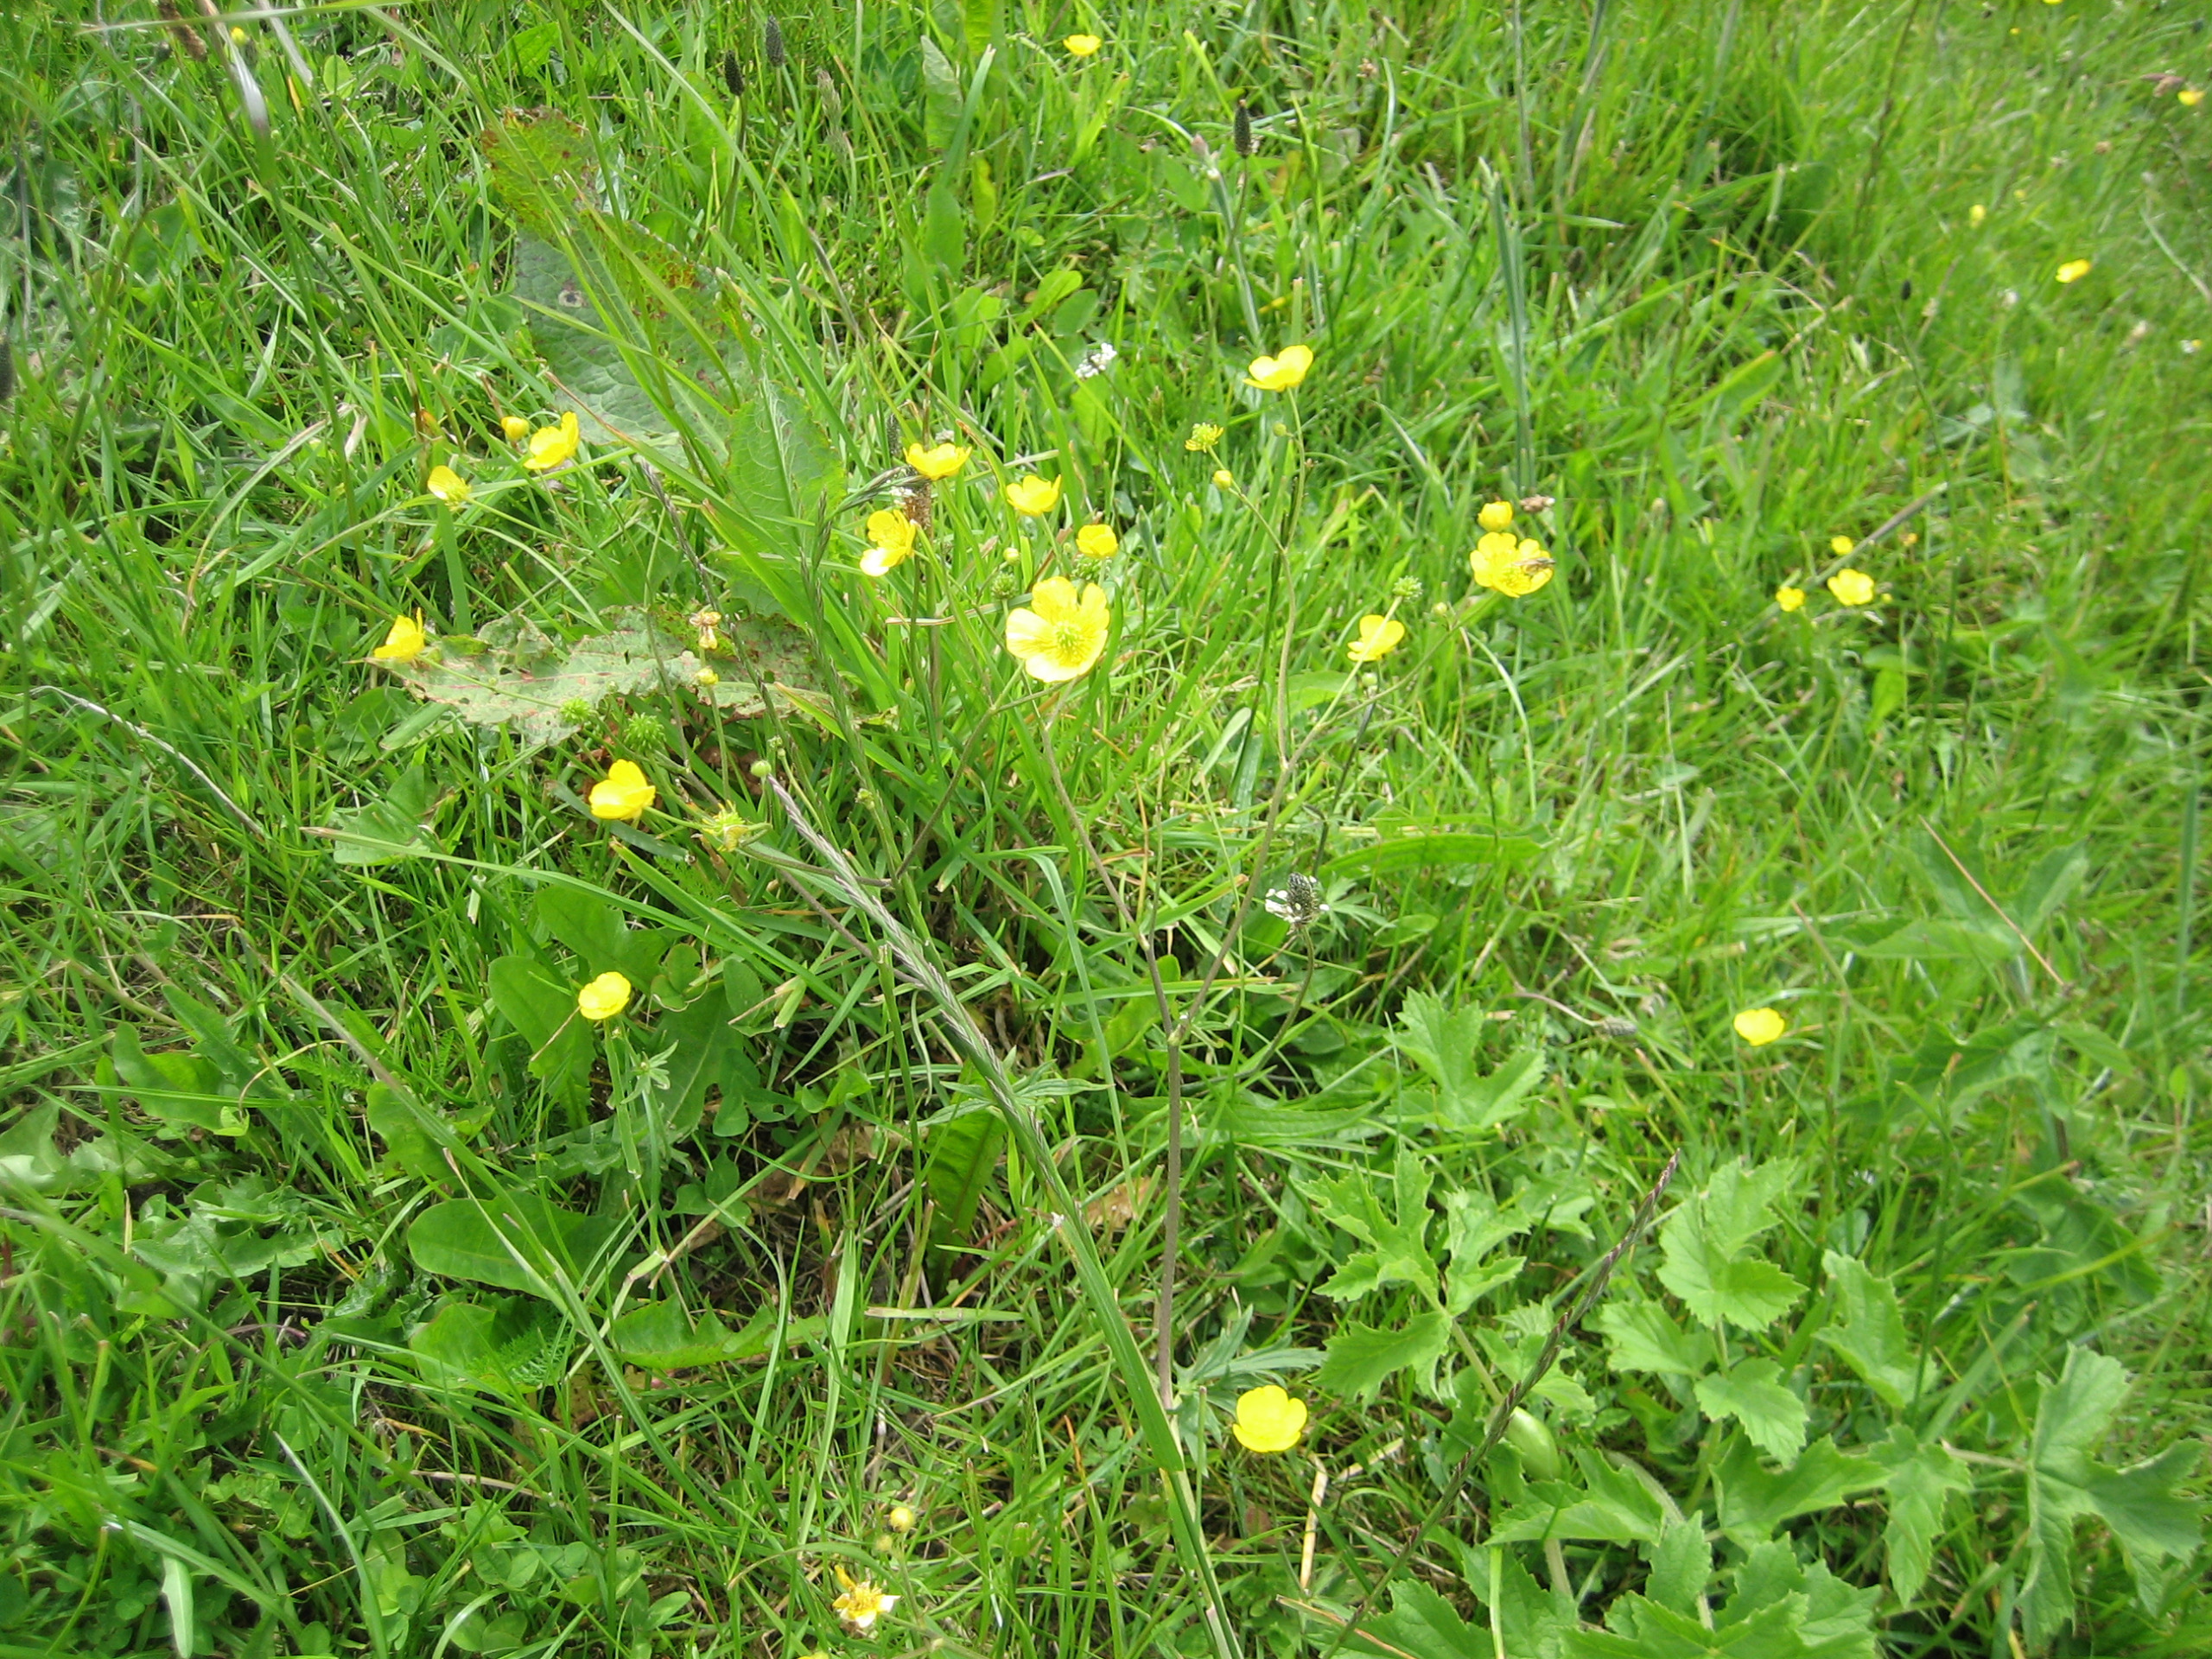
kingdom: Plantae
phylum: Tracheophyta
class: Magnoliopsida
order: Ranunculales
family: Ranunculaceae
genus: Ranunculus
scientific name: Ranunculus acris
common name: Bidende ranunkel
